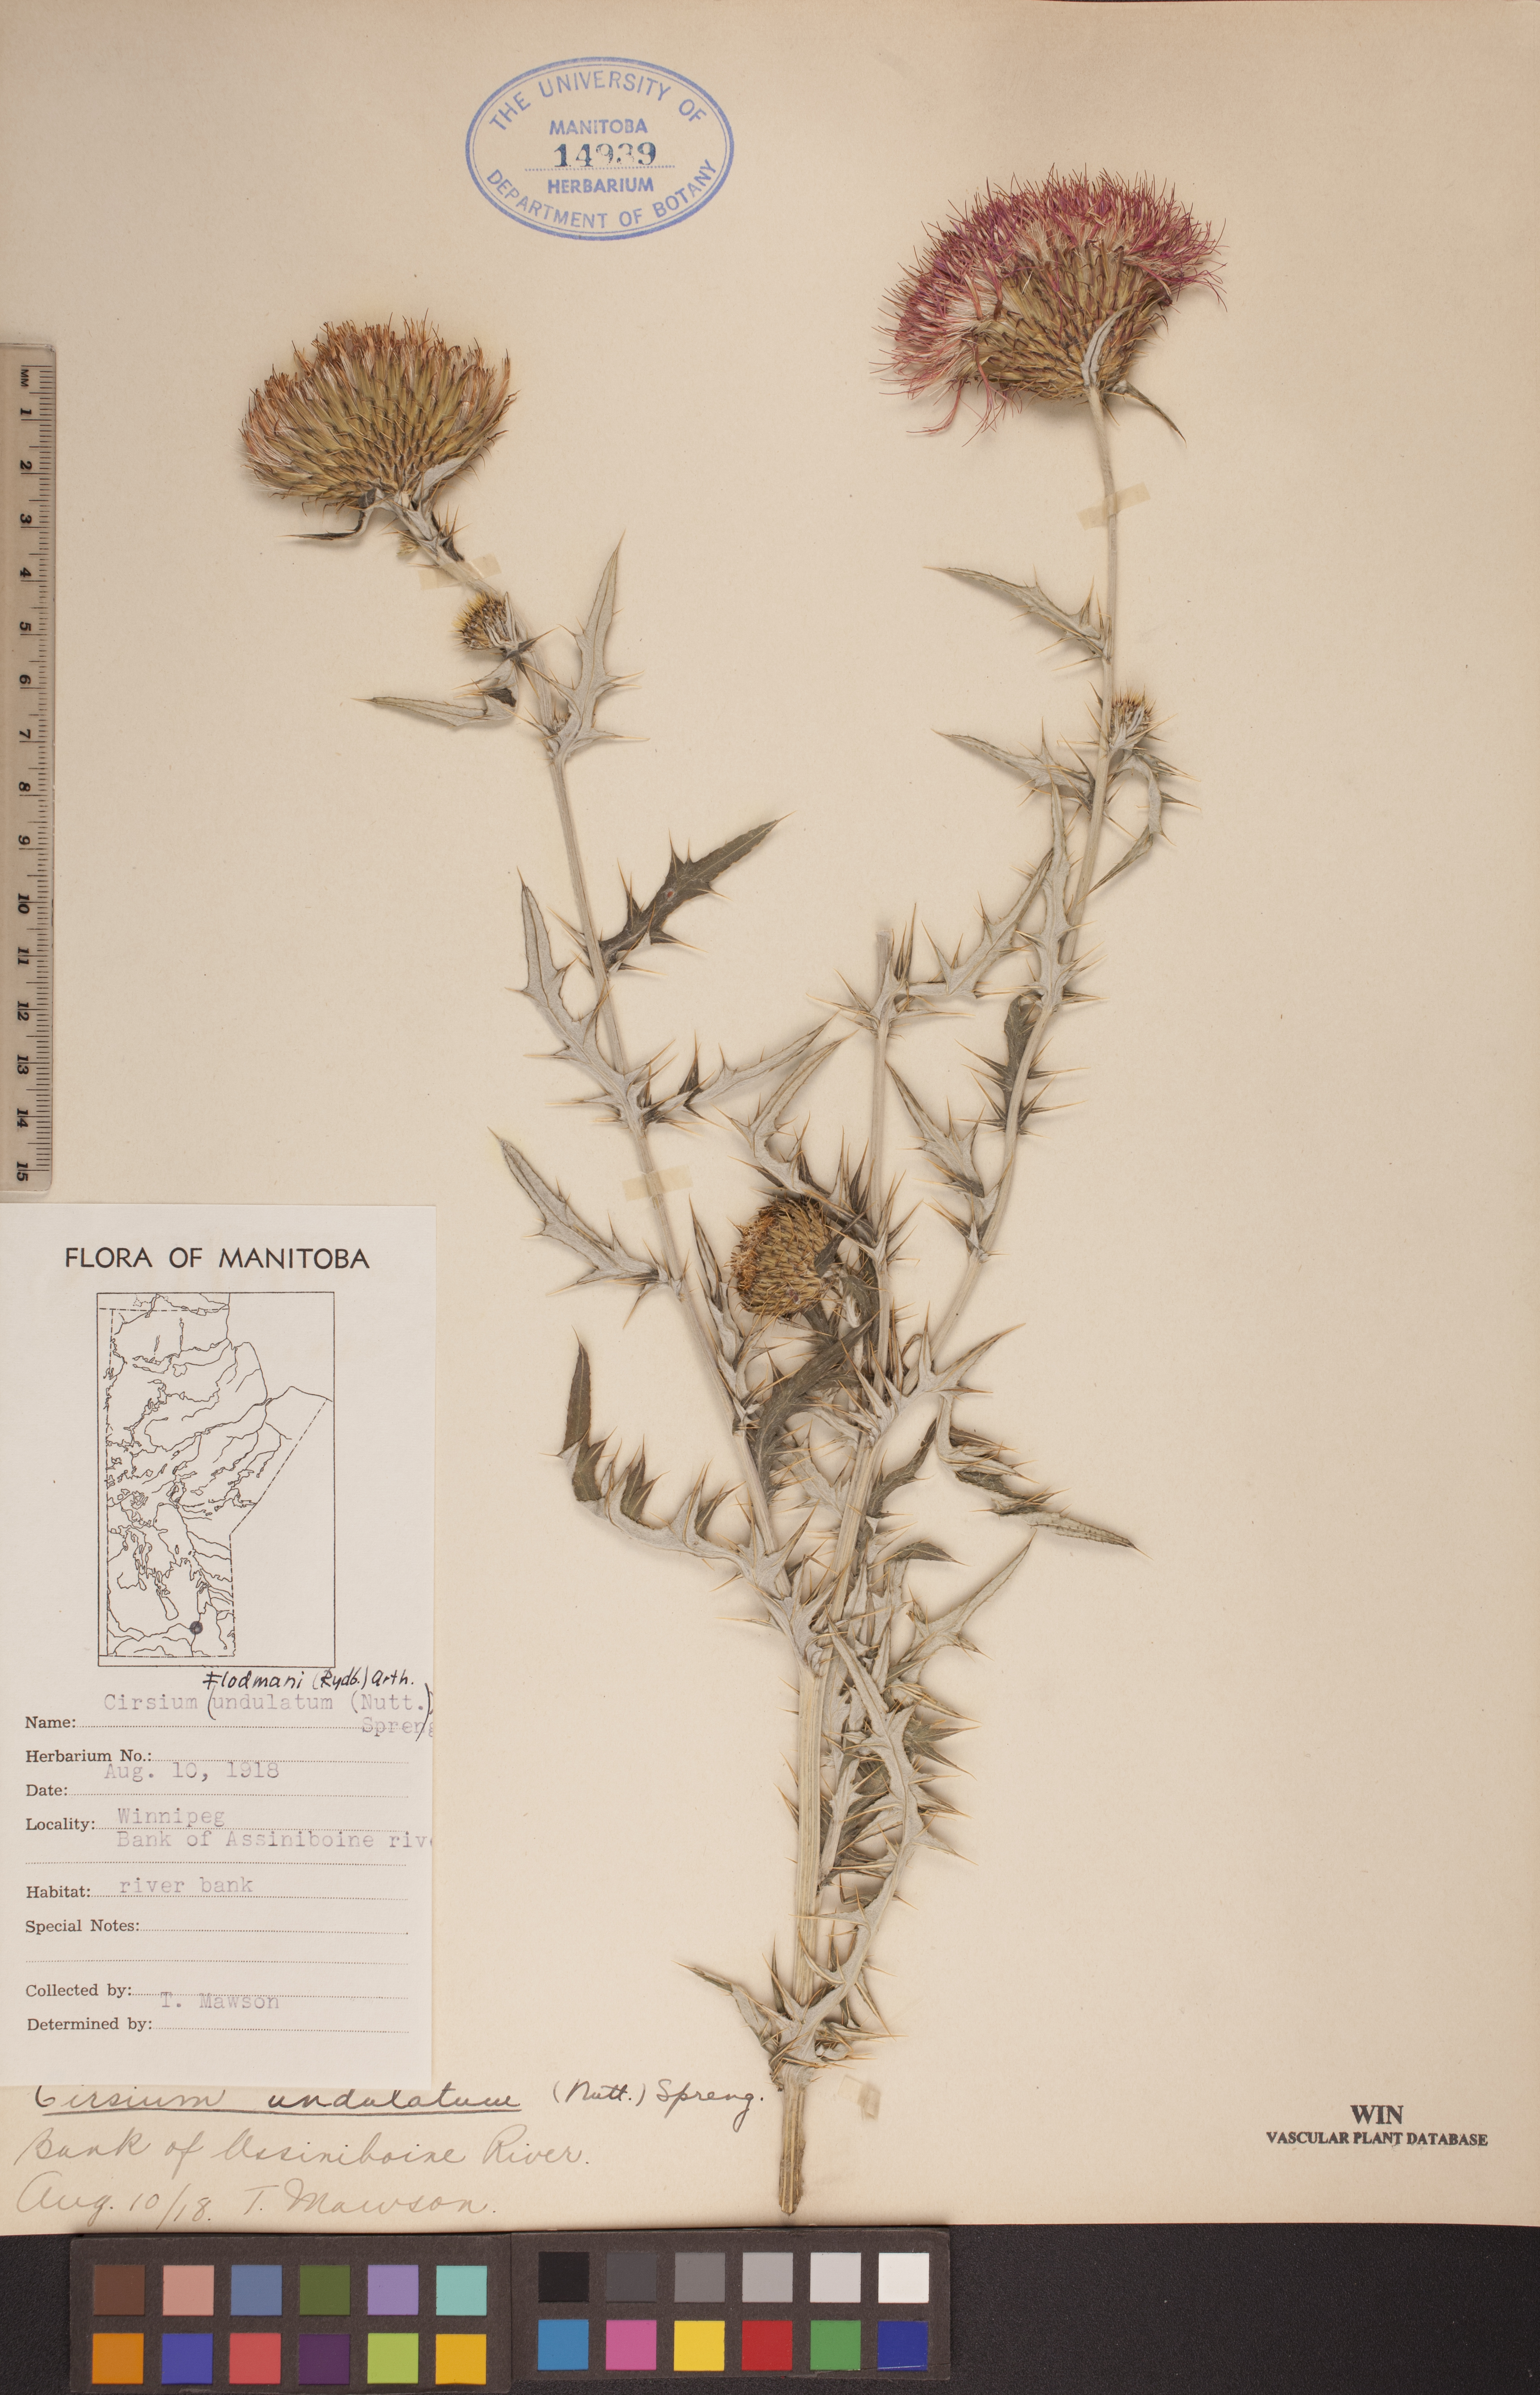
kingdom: Plantae
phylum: Tracheophyta
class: Magnoliopsida
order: Asterales
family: Asteraceae
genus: Cirsium
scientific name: Cirsium flodmanii
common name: Flodman's thistle
